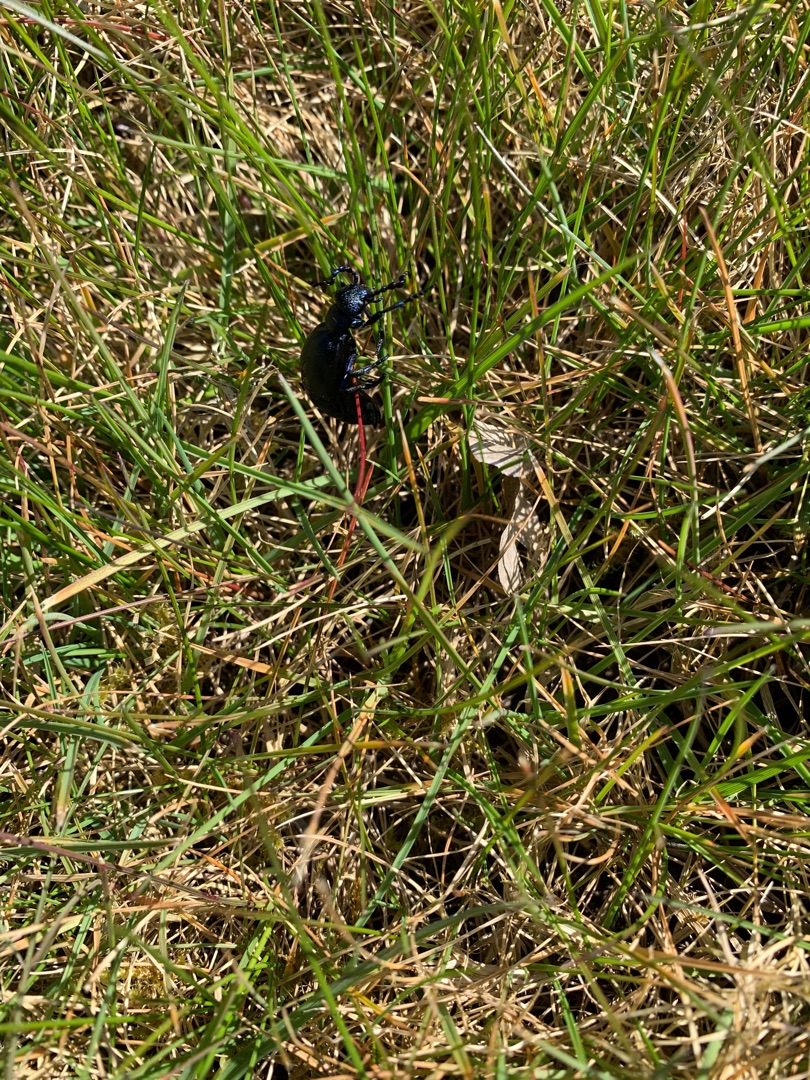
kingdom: Animalia
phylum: Arthropoda
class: Insecta
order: Coleoptera
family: Meloidae
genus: Meloe
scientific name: Meloe proscarabaeus
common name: Sort oliebille
